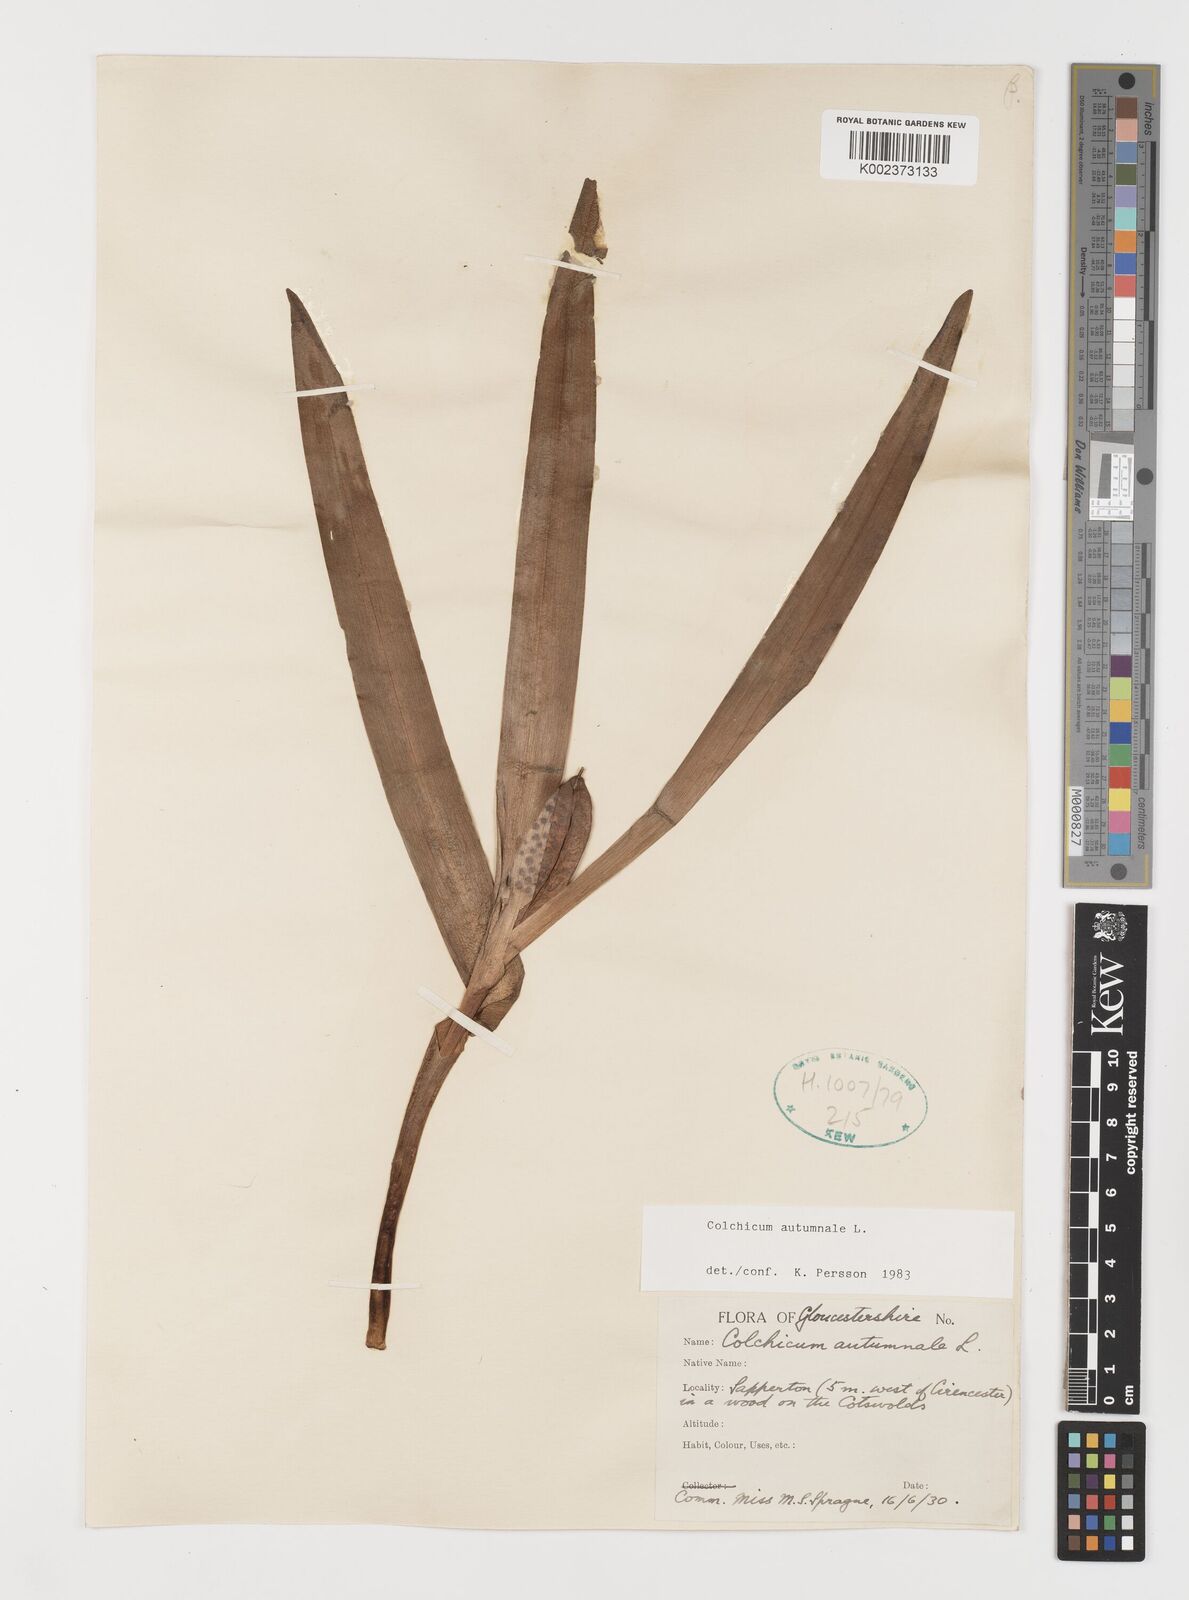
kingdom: Plantae
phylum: Tracheophyta
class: Liliopsida
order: Liliales
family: Colchicaceae
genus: Colchicum
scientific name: Colchicum autumnale
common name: Autumn crocus
